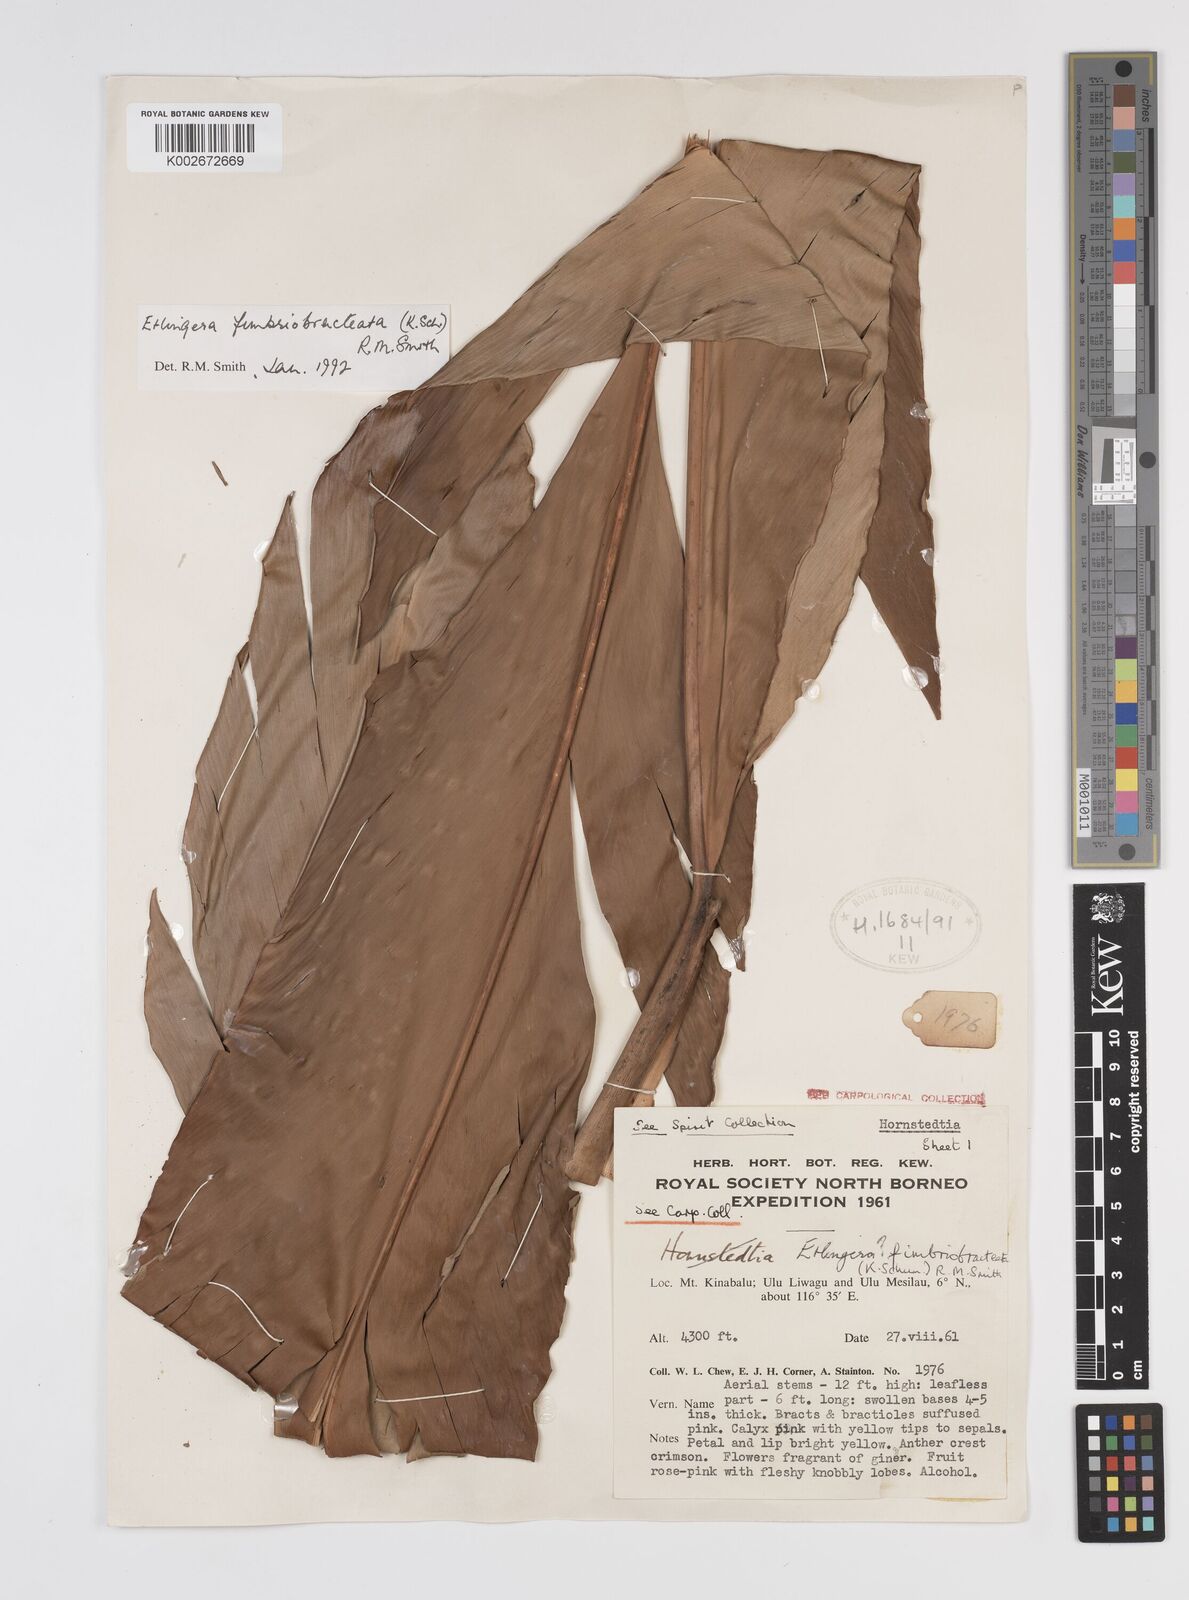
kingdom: Plantae
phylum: Tracheophyta
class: Liliopsida
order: Zingiberales
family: Zingiberaceae
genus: Etlingera
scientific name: Etlingera fimbriobracteata
